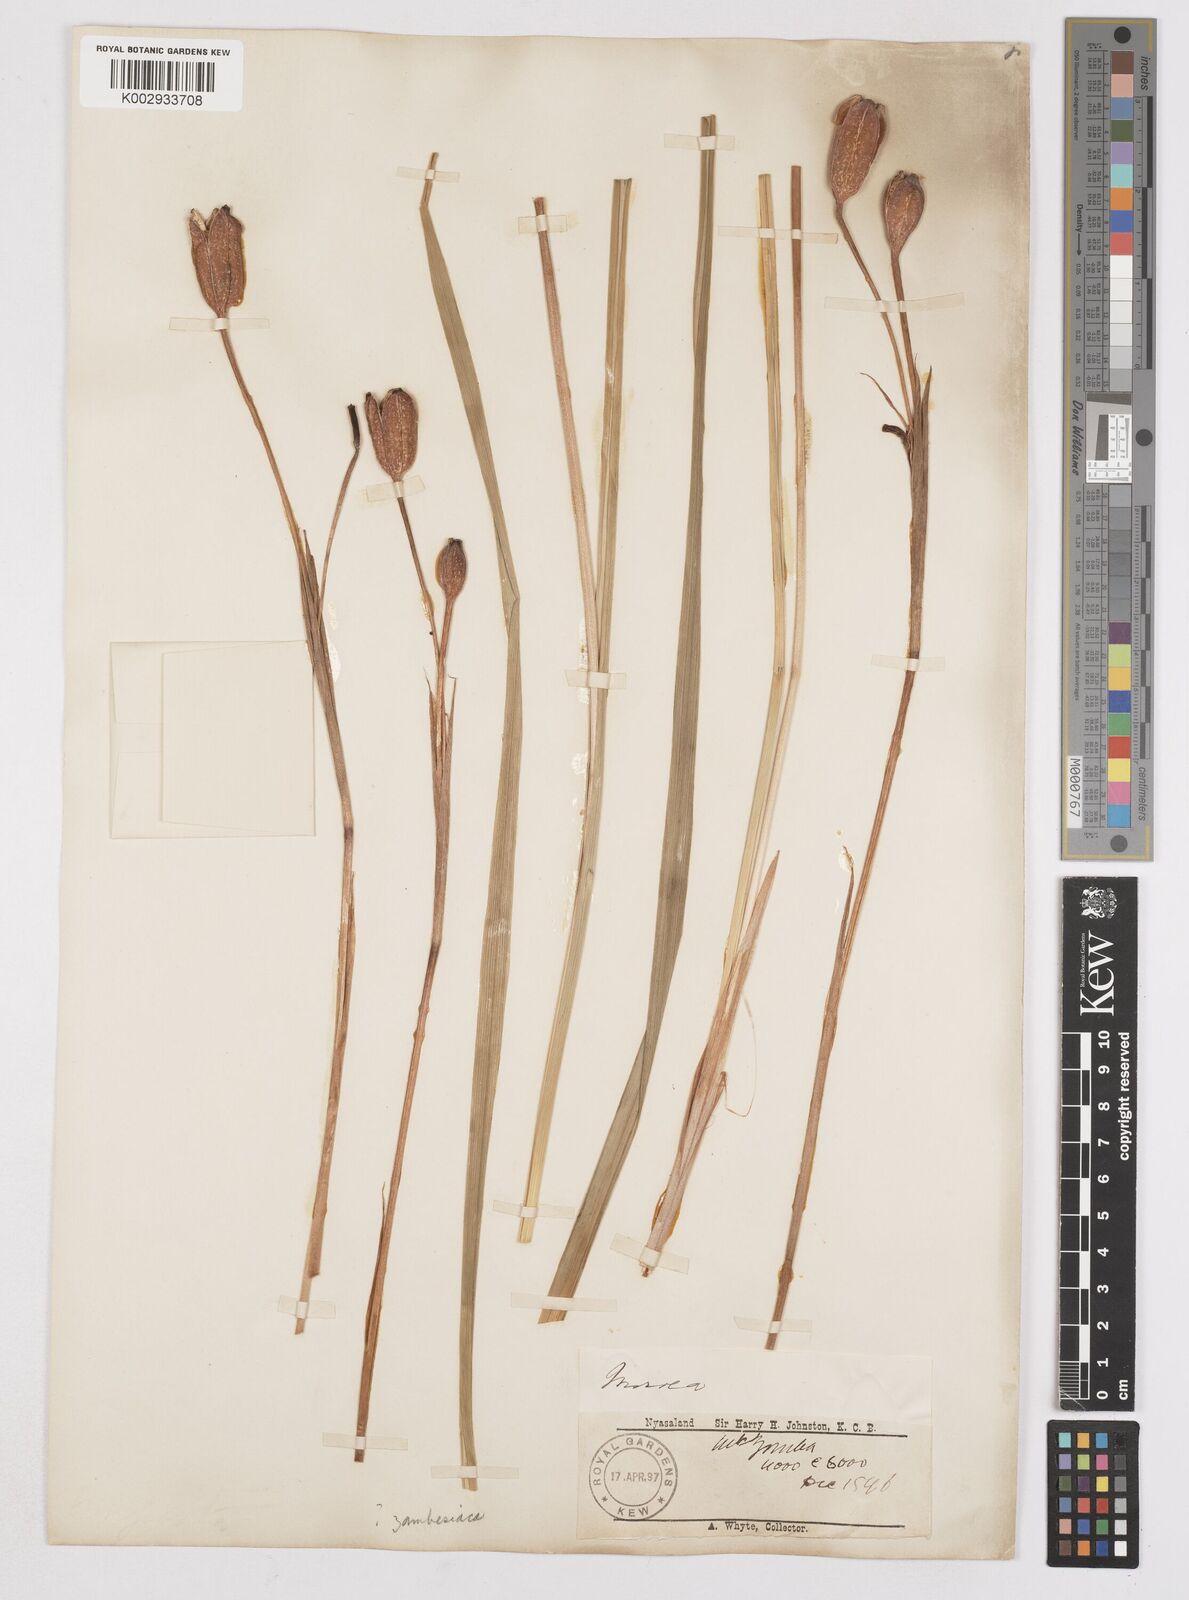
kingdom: Plantae
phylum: Tracheophyta
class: Liliopsida
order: Asparagales
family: Iridaceae
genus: Moraea
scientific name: Moraea schimperi
